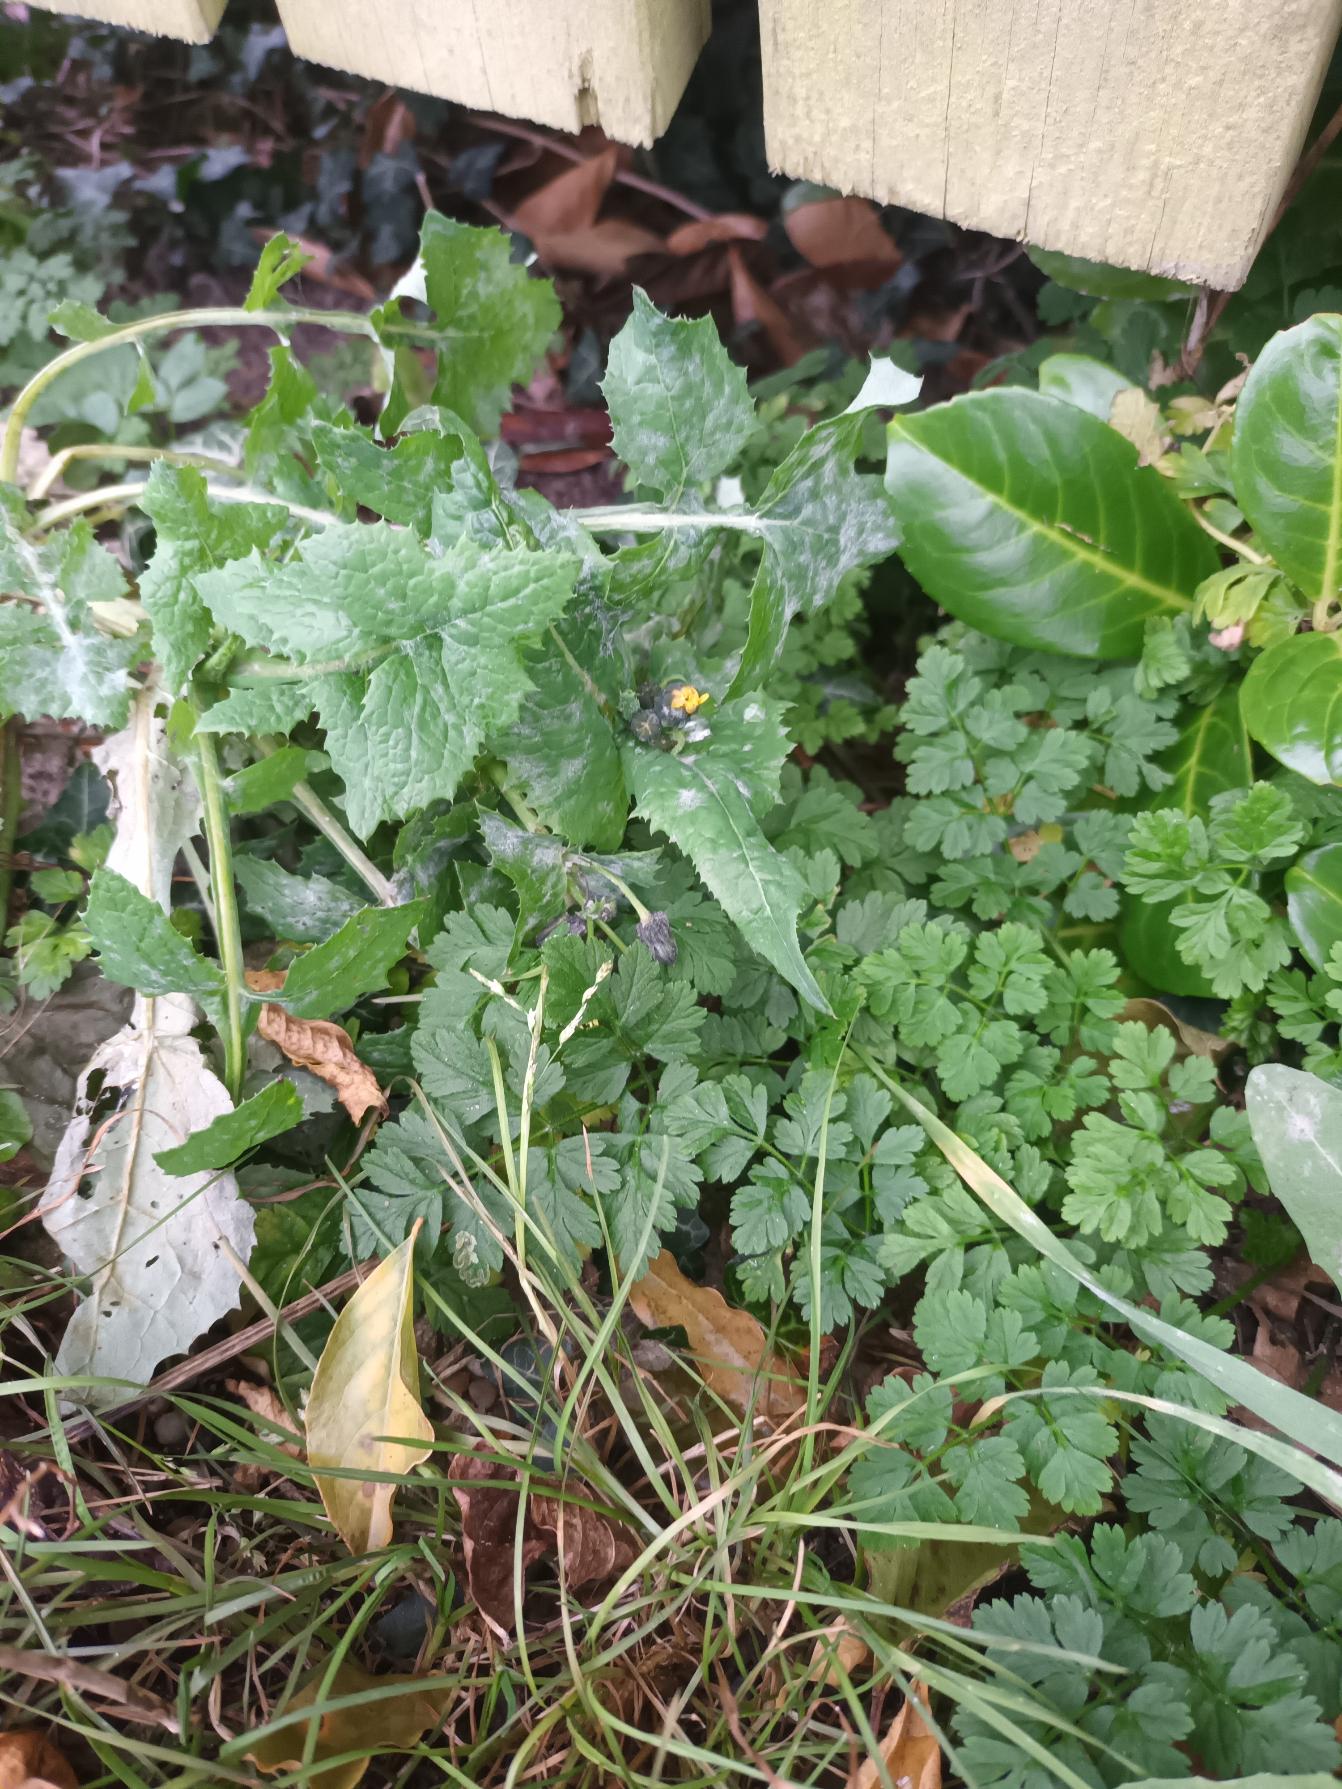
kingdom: Plantae
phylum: Tracheophyta
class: Magnoliopsida
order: Asterales
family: Asteraceae
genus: Sonchus
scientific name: Sonchus oleraceus
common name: Almindelig svinemælk
